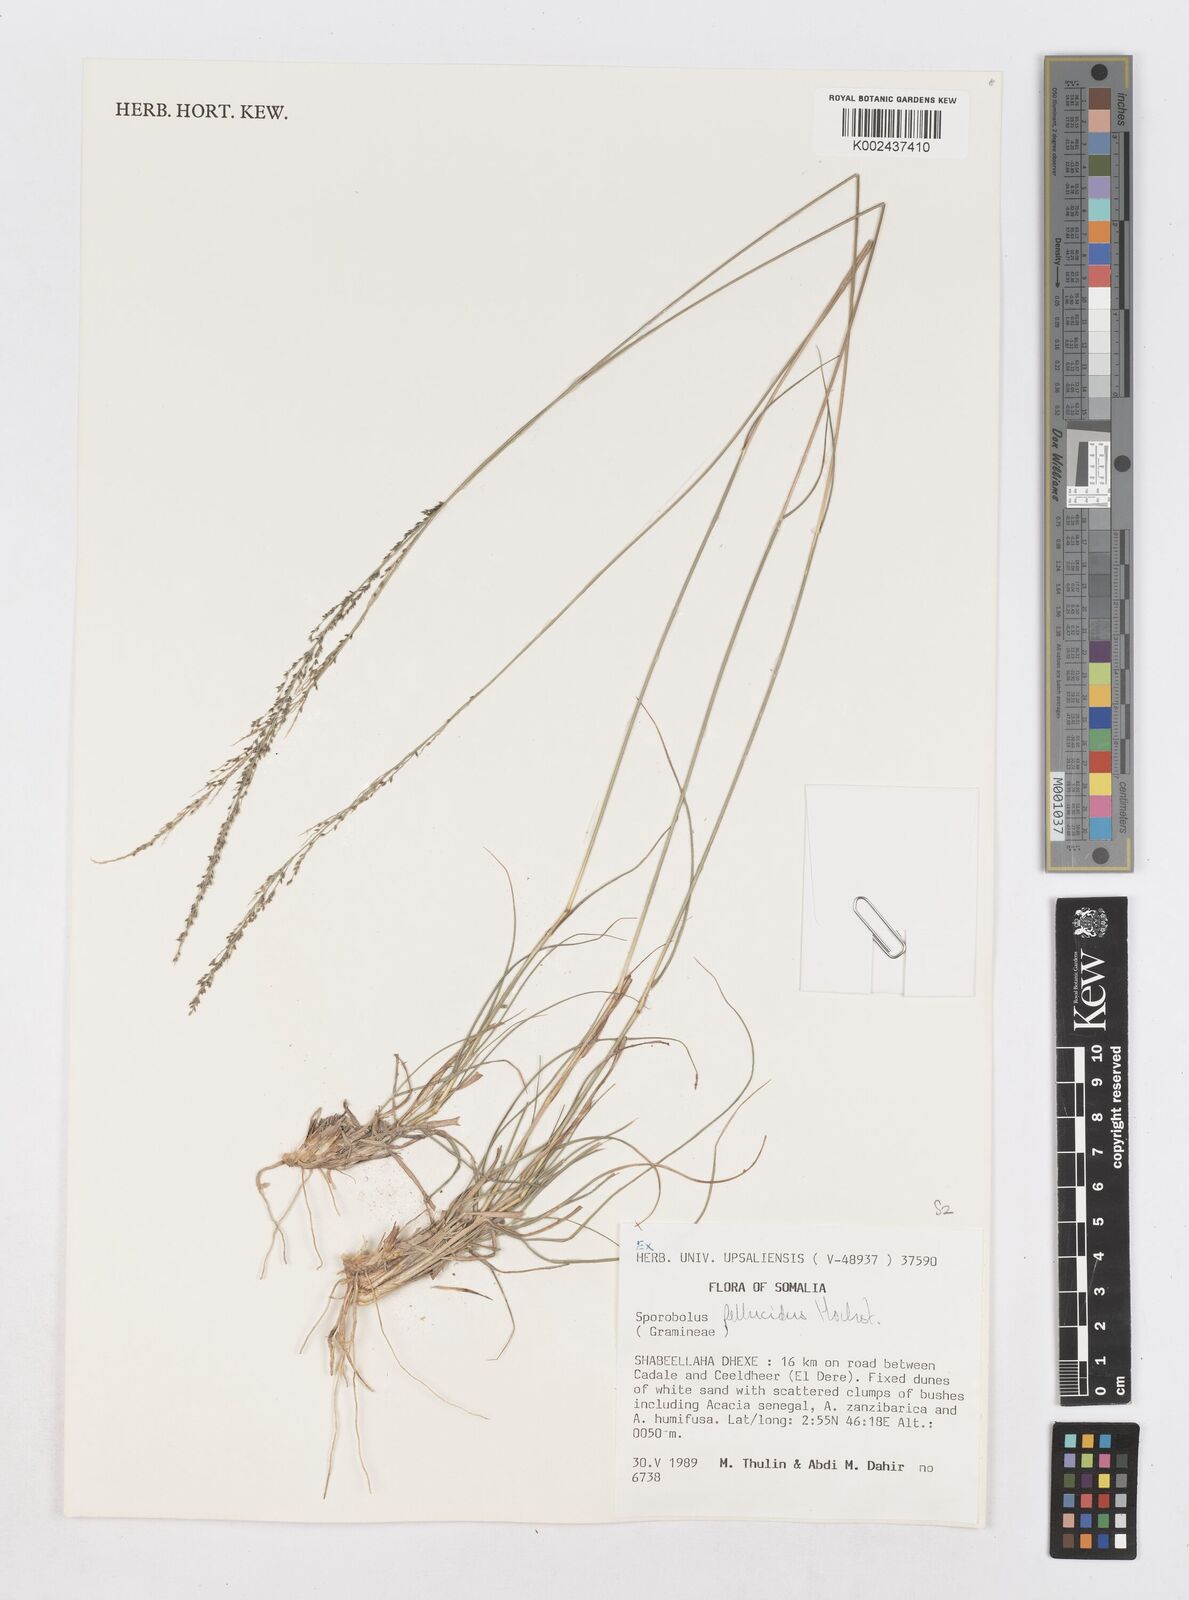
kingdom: Plantae
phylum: Tracheophyta
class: Liliopsida
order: Poales
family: Poaceae
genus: Sporobolus
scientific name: Sporobolus pellucidus
